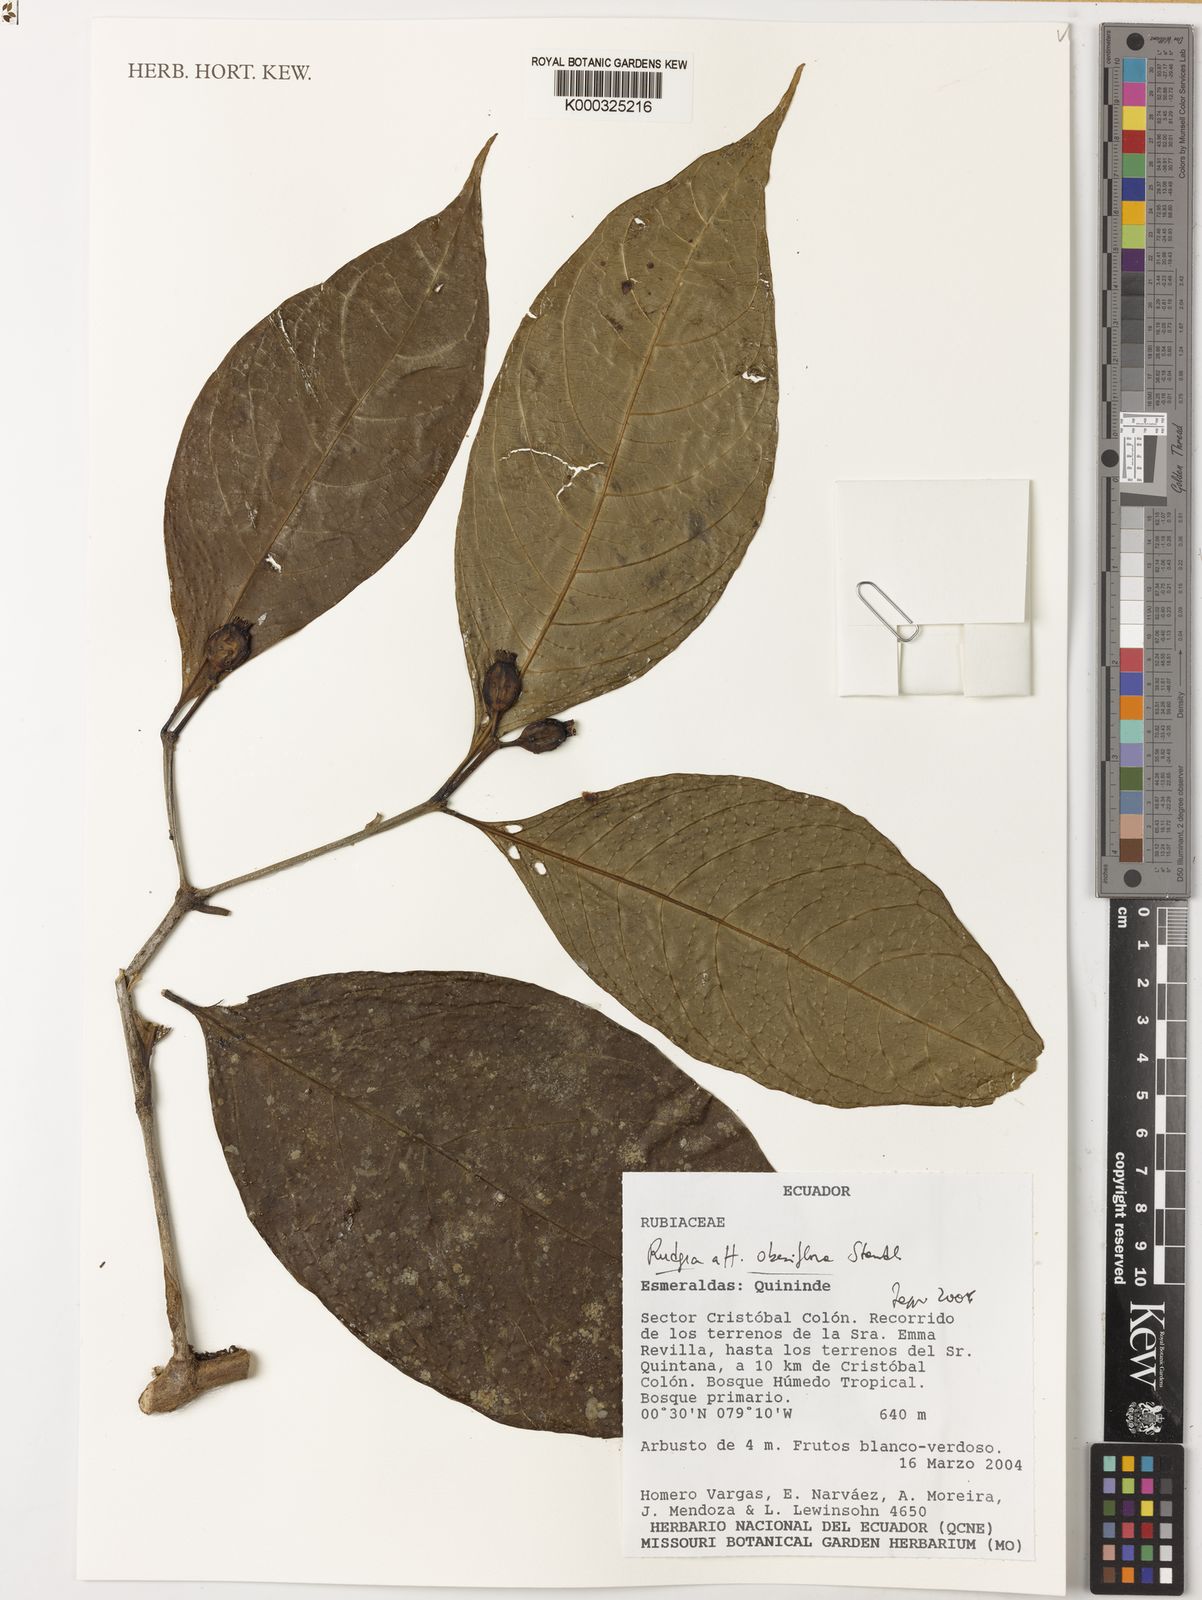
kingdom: Plantae
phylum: Tracheophyta
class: Magnoliopsida
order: Gentianales
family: Rubiaceae
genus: Rudgea
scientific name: Rudgea obesiflora
